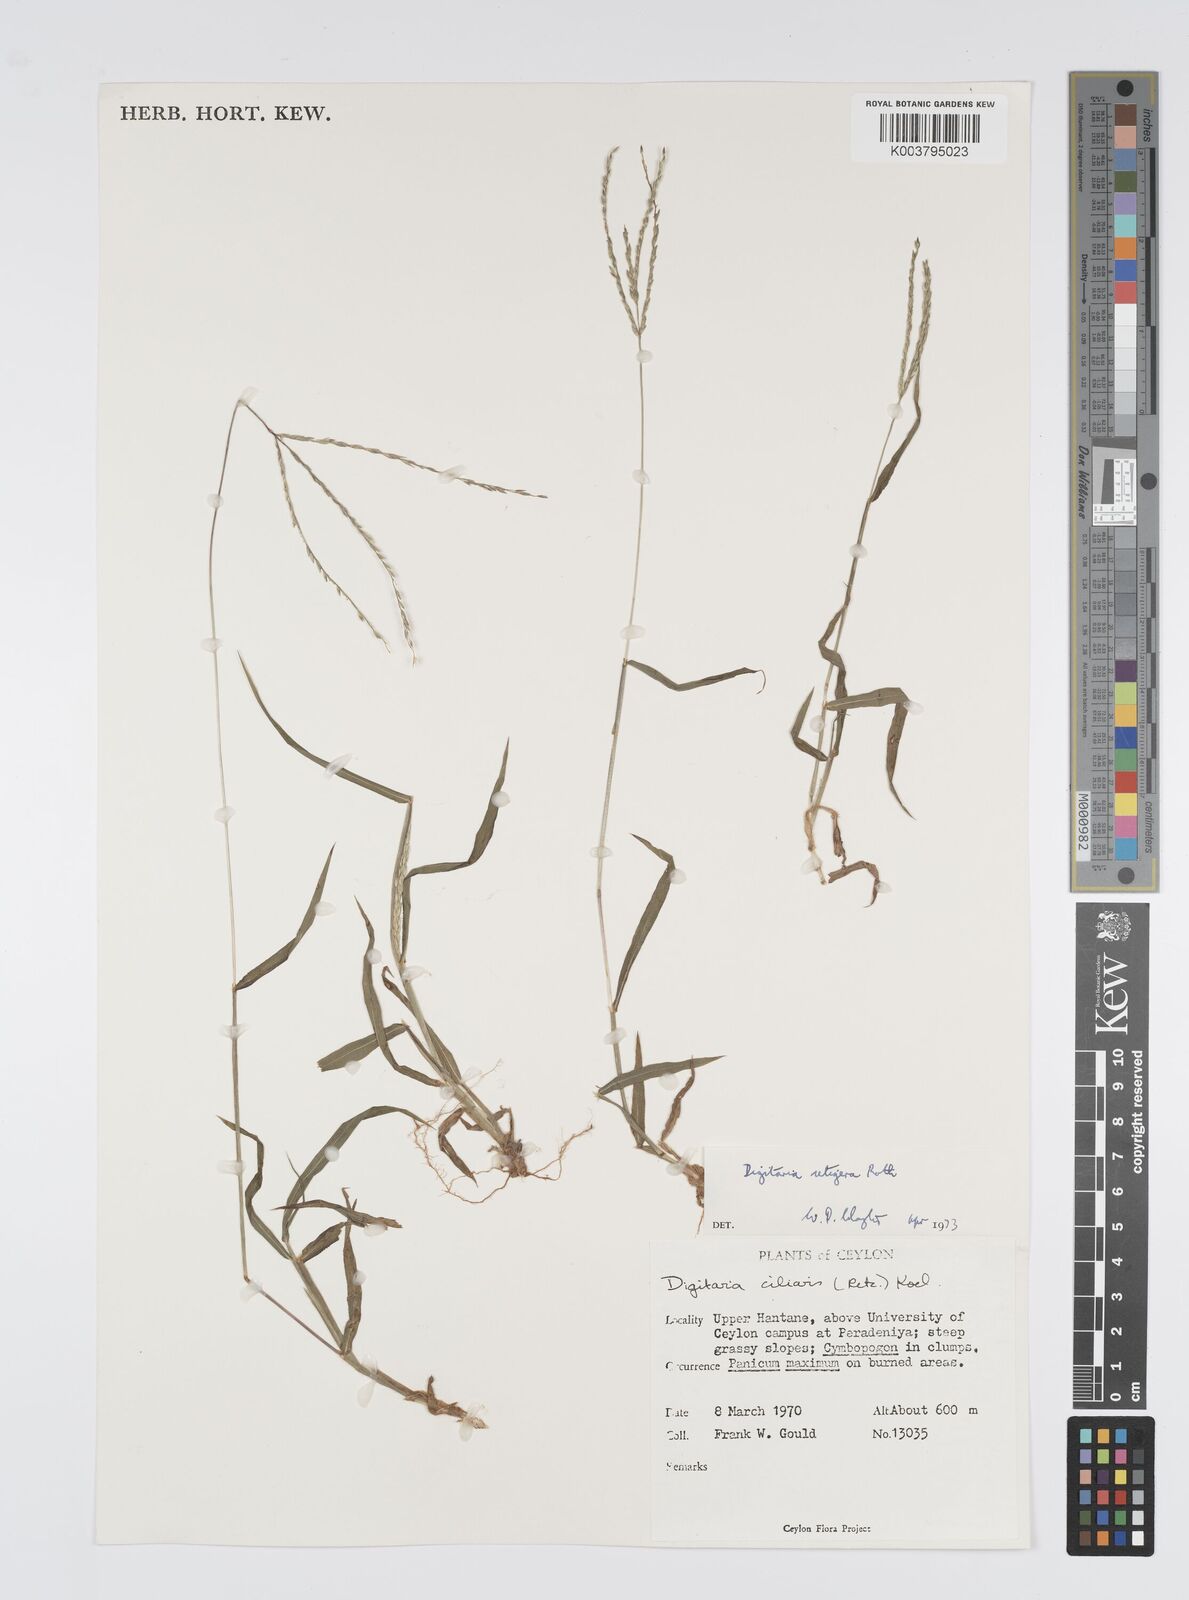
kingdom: Plantae
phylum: Tracheophyta
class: Liliopsida
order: Poales
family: Poaceae
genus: Digitaria
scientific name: Digitaria setigera
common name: East indian crabgrass
